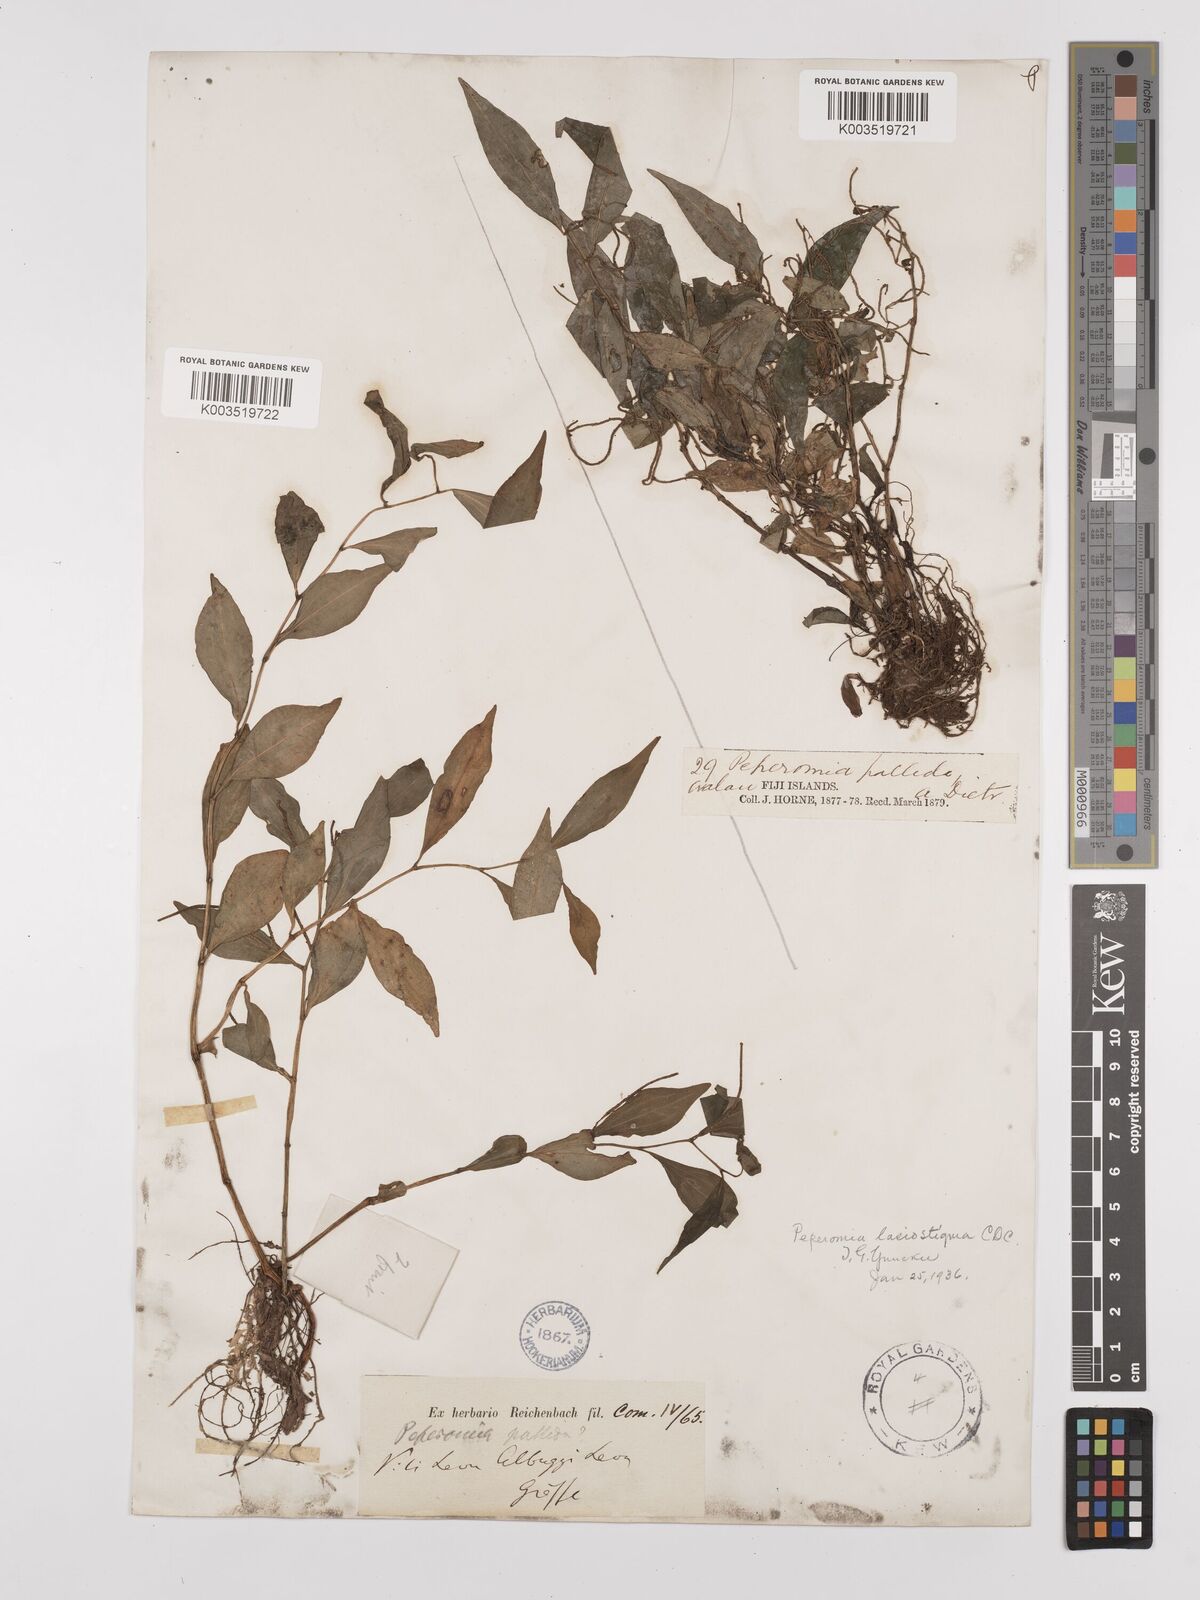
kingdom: Plantae
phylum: Tracheophyta
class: Magnoliopsida
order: Piperales
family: Piperaceae
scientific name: Piperaceae
